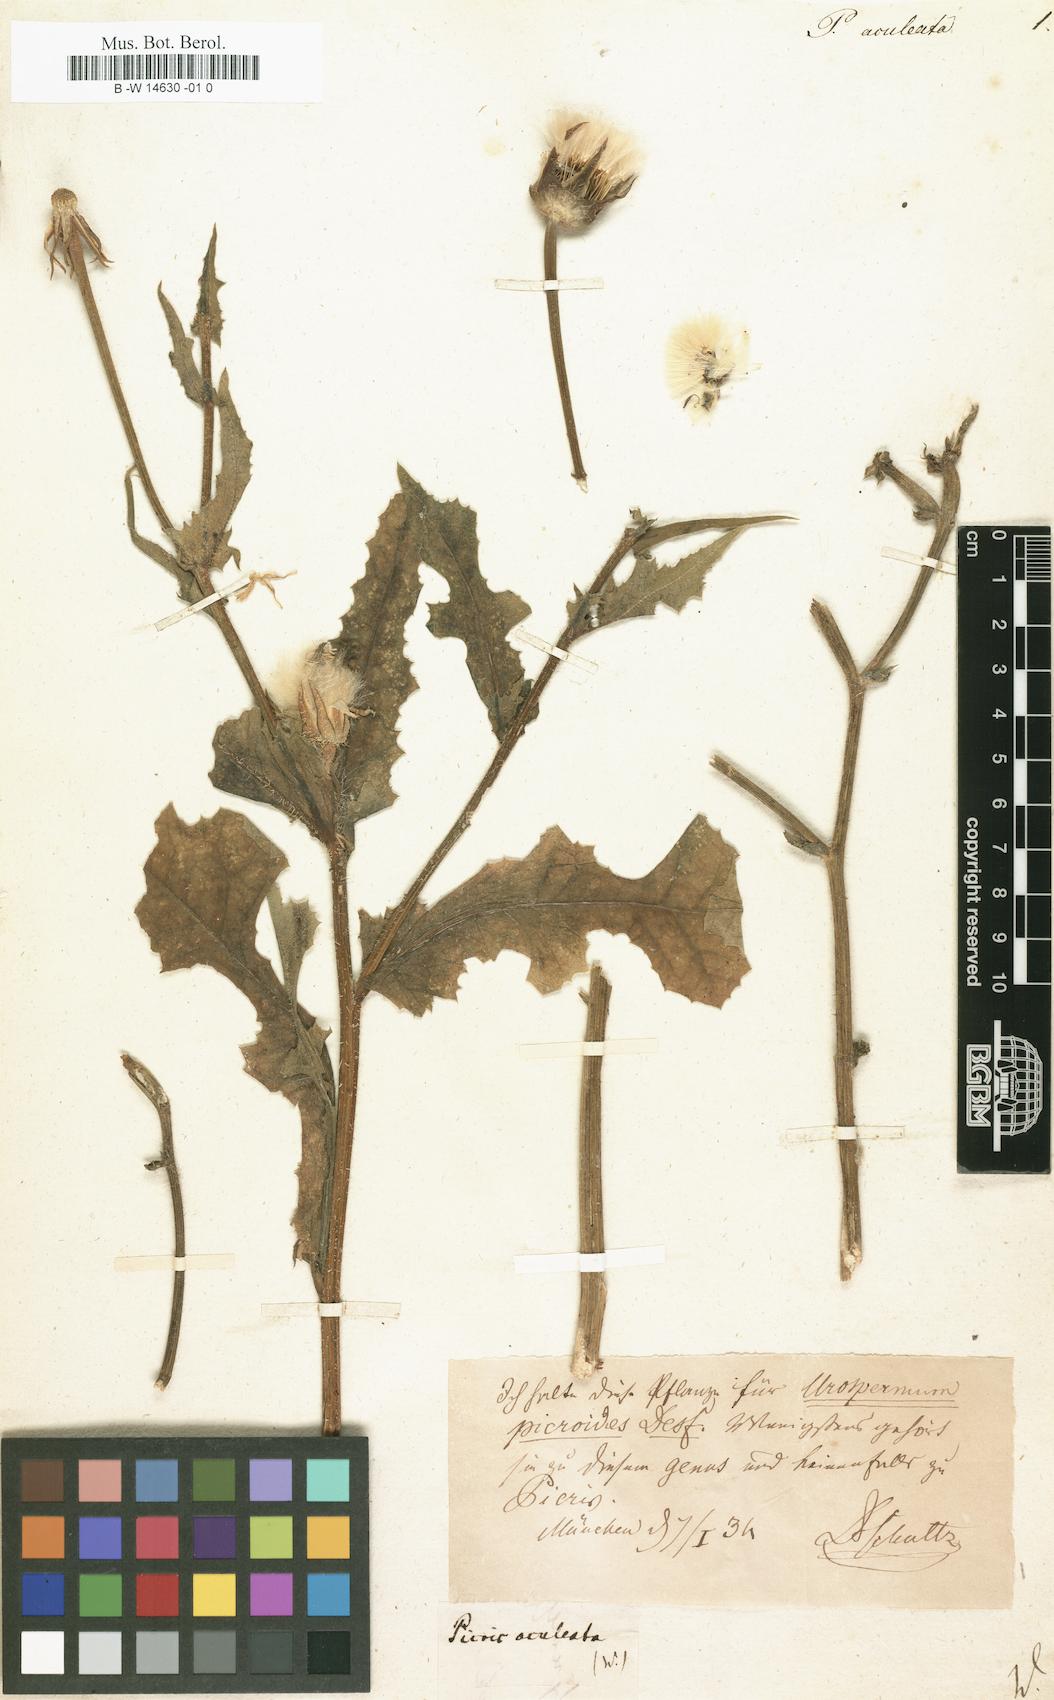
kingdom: Plantae
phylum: Tracheophyta
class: Magnoliopsida
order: Asterales
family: Asteraceae
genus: Helminthotheca
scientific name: Helminthotheca aculeata
